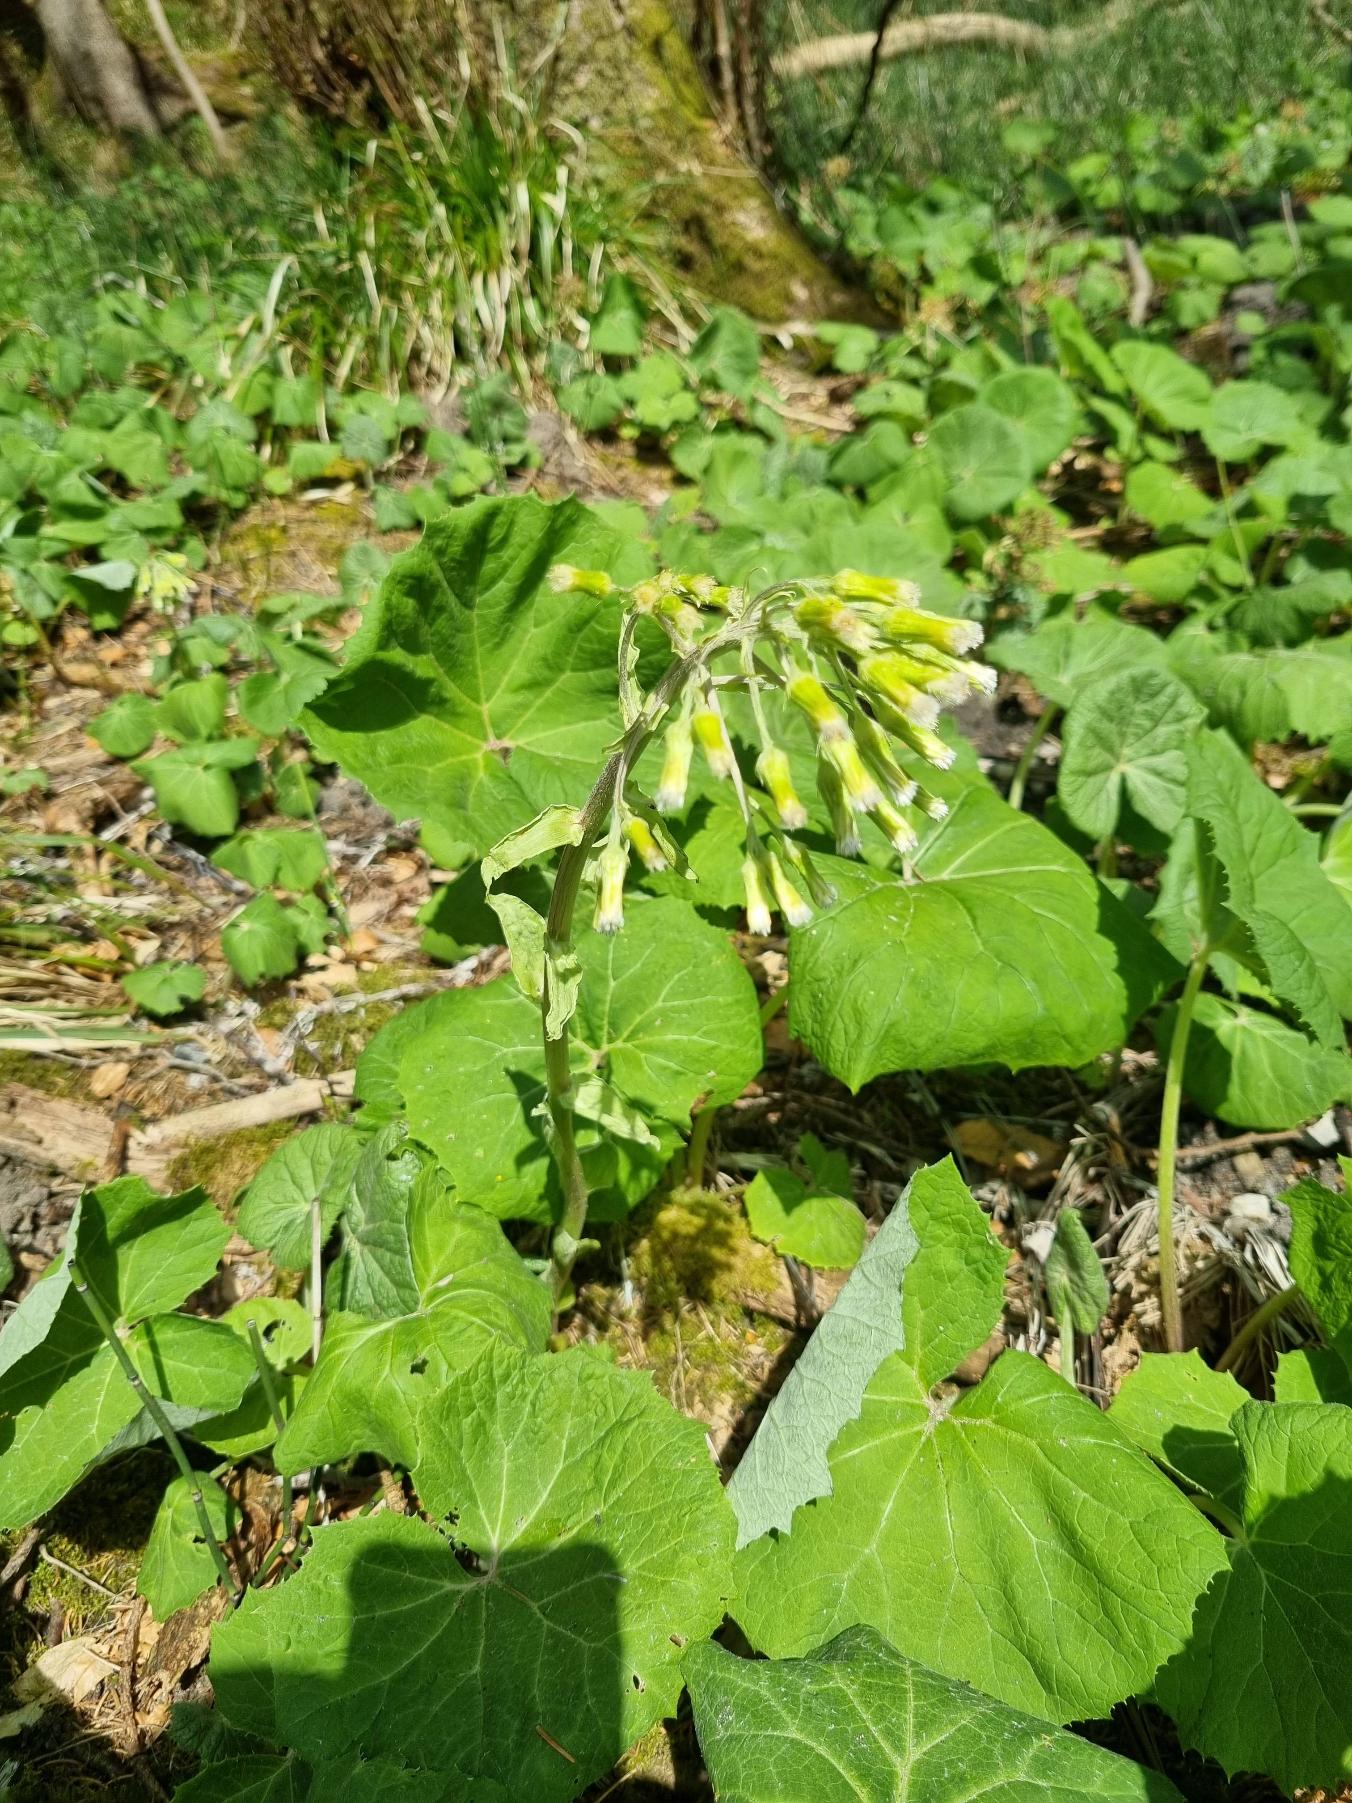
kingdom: Plantae
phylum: Tracheophyta
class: Magnoliopsida
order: Asterales
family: Asteraceae
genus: Petasites
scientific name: Petasites albus
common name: Hvid hestehov
